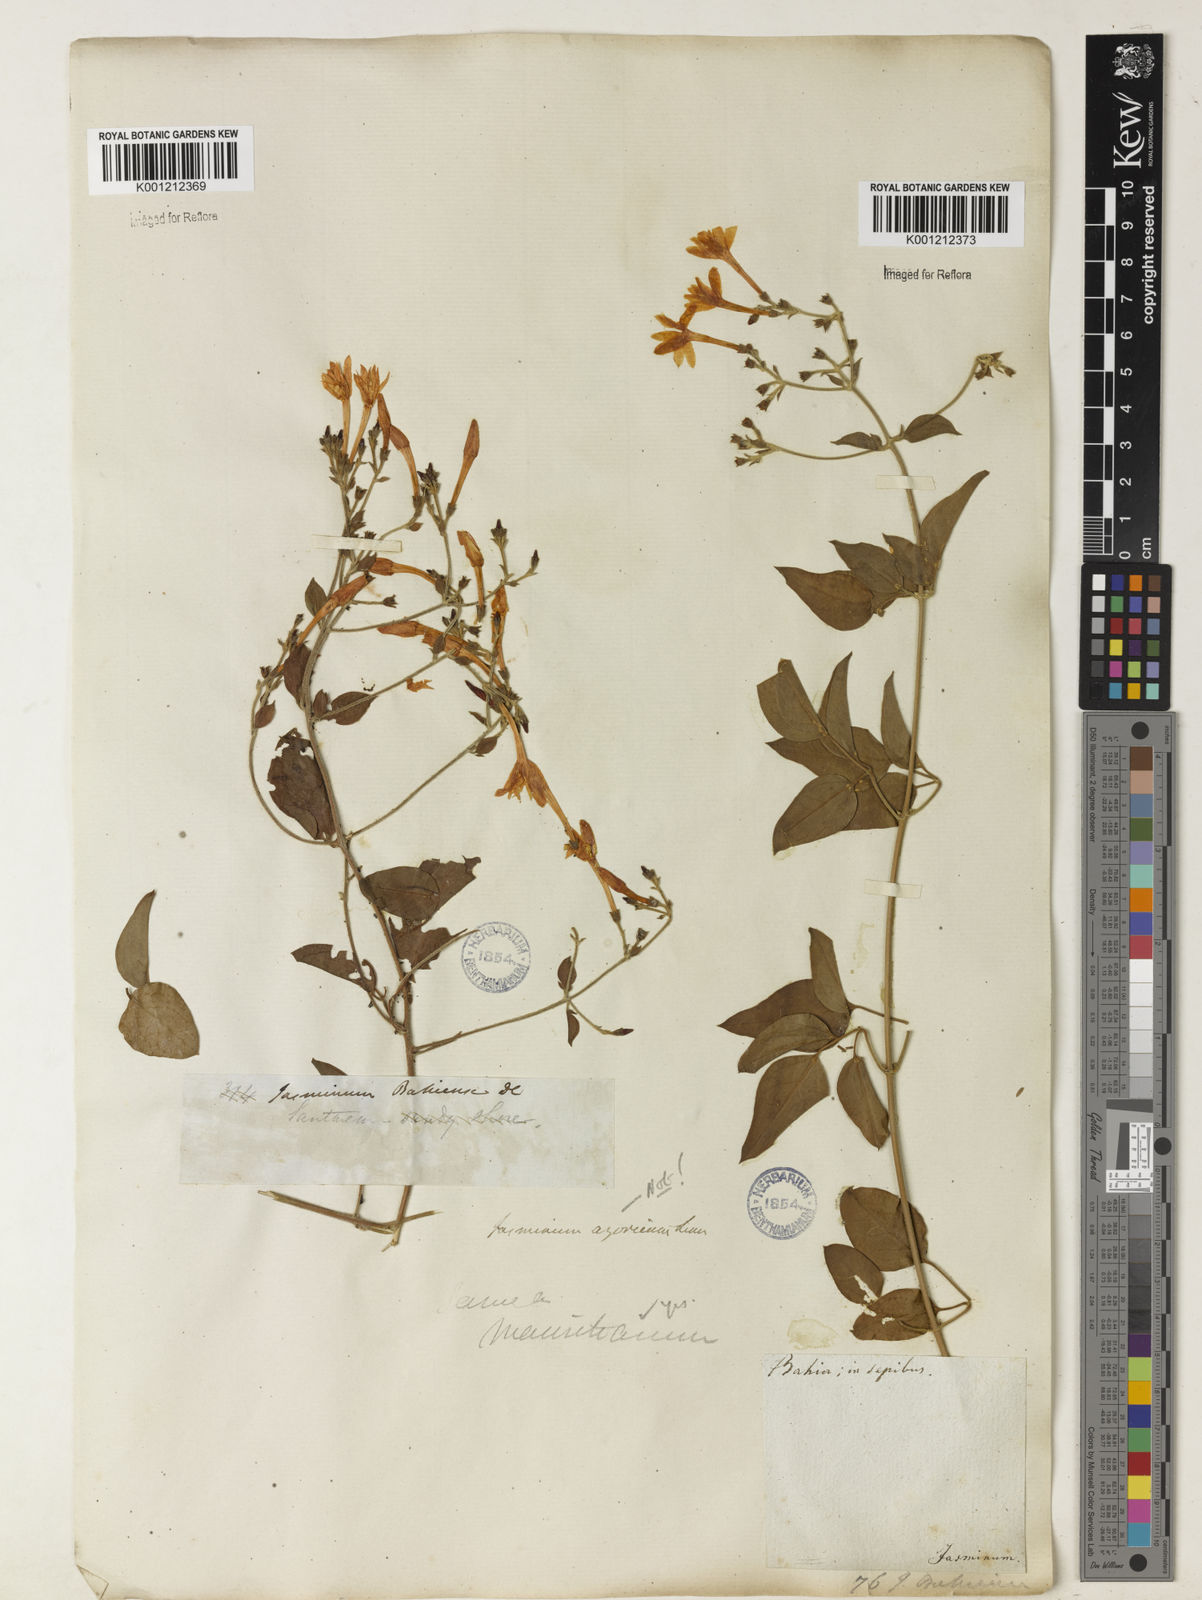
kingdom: Plantae
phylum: Tracheophyta
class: Magnoliopsida
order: Lamiales
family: Oleaceae
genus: Jasminum
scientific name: Jasminum fluminense
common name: Brazilian jasmine
